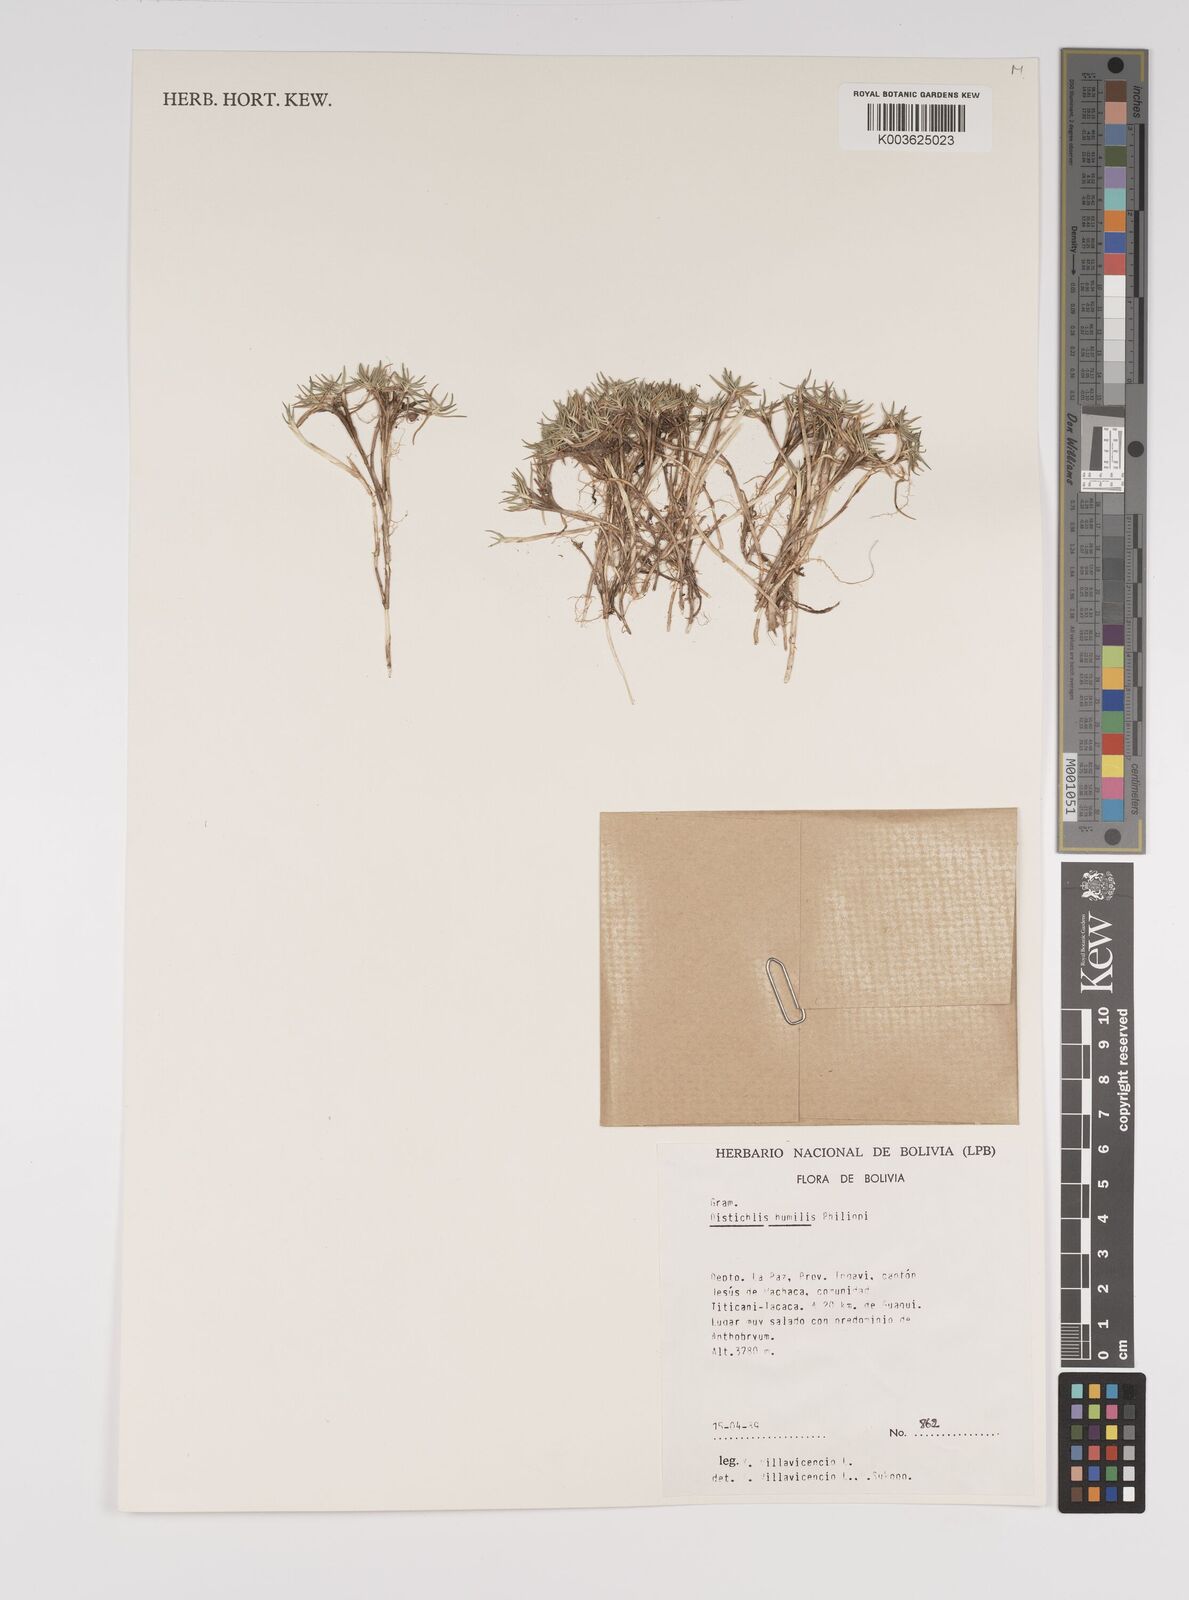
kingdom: Plantae
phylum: Tracheophyta
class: Liliopsida
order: Poales
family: Poaceae
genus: Distichlis
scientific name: Distichlis humilis
